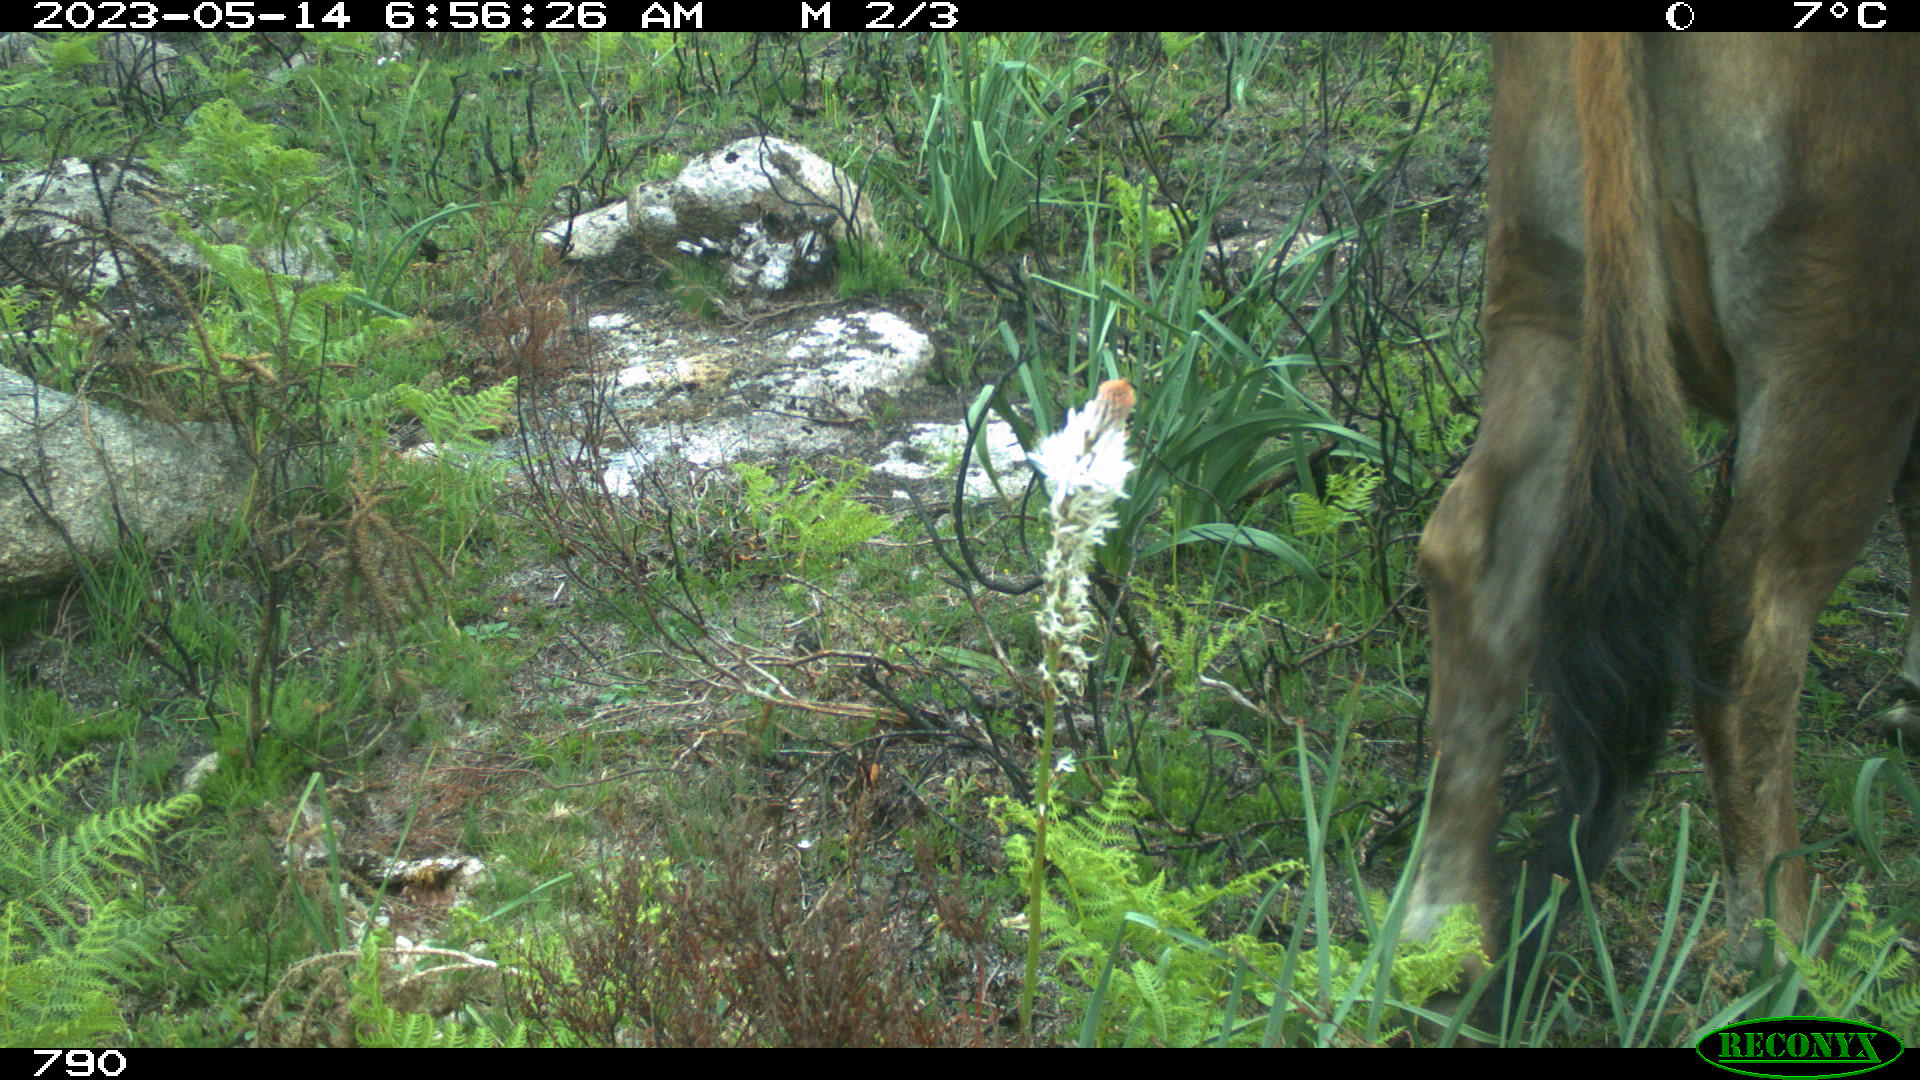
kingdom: Animalia
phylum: Chordata
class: Mammalia
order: Artiodactyla
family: Bovidae
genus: Bos
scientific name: Bos taurus
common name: Domesticated cattle
